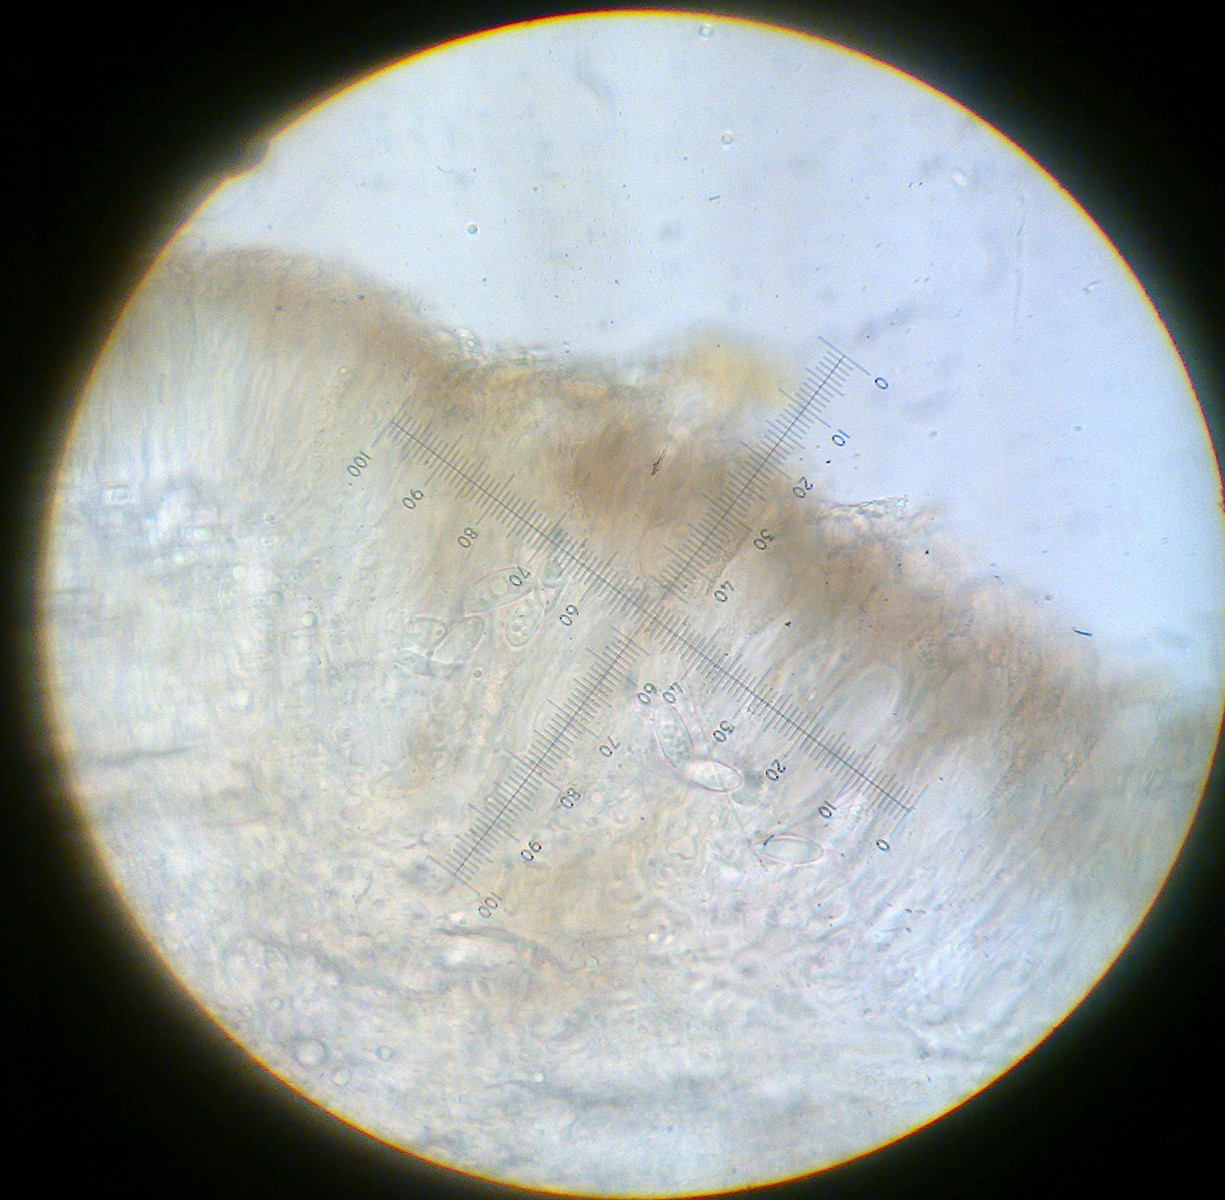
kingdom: Fungi
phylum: Ascomycota
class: Lecanoromycetes
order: Lecanorales
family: Lecanoraceae
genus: Palicella
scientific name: Palicella filamentosa
